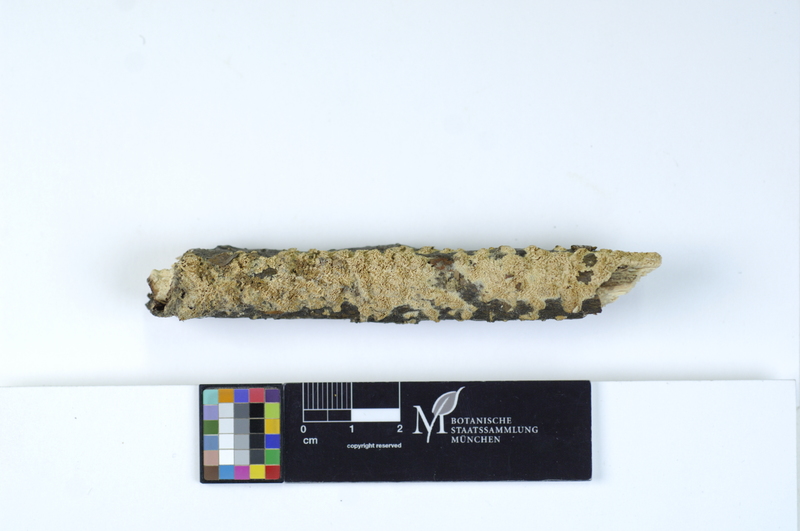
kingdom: Fungi
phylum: Basidiomycota
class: Agaricomycetes
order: Hymenochaetales
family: Schizoporaceae
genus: Xylodon
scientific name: Xylodon raduloides
